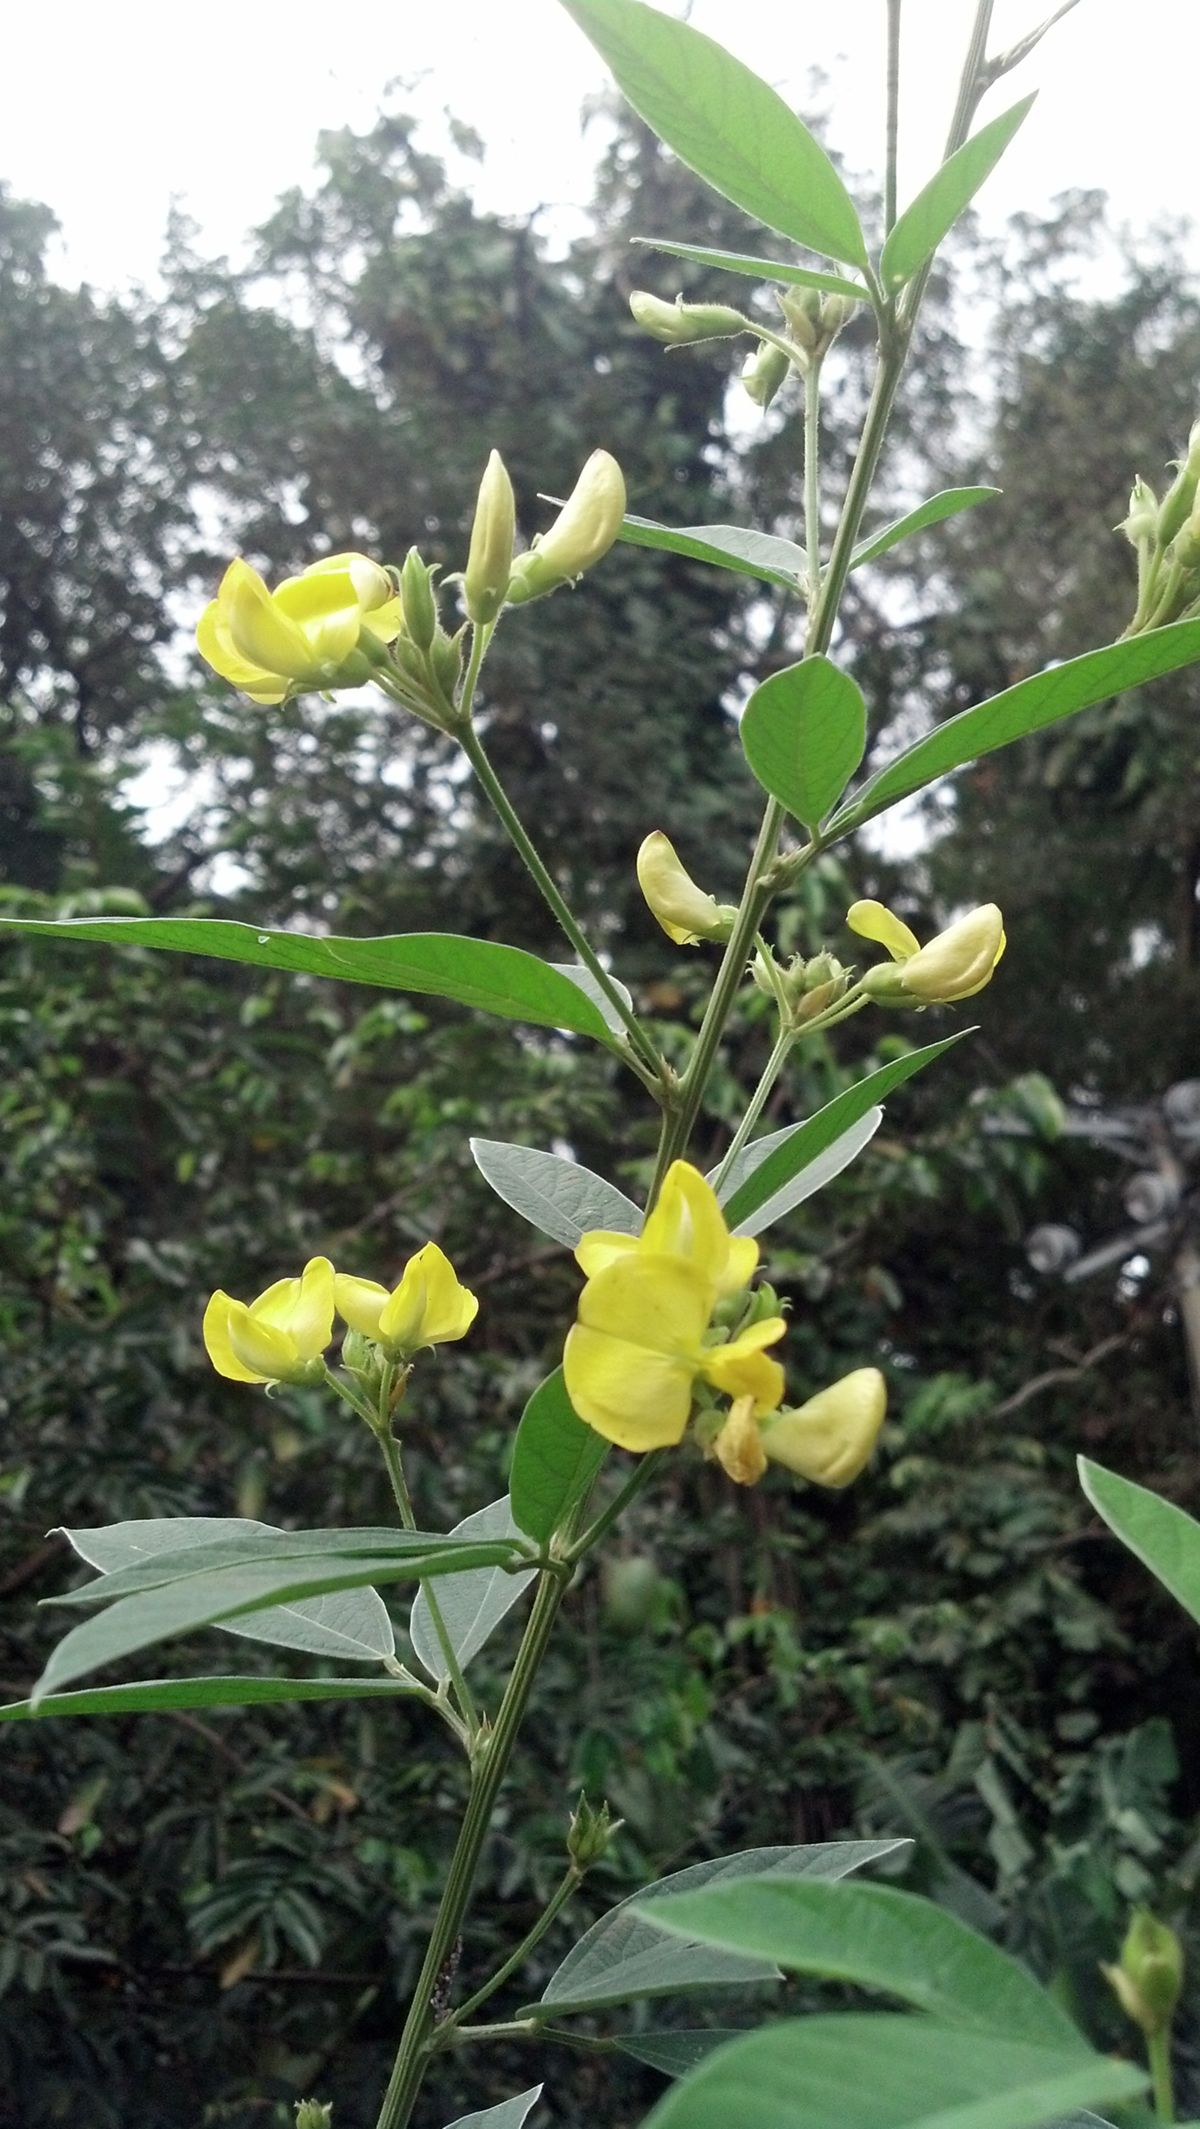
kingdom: Plantae
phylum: Tracheophyta
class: Magnoliopsida
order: Fabales
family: Fabaceae
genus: Cajanus
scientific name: Cajanus cajan
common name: Pigeonpea
